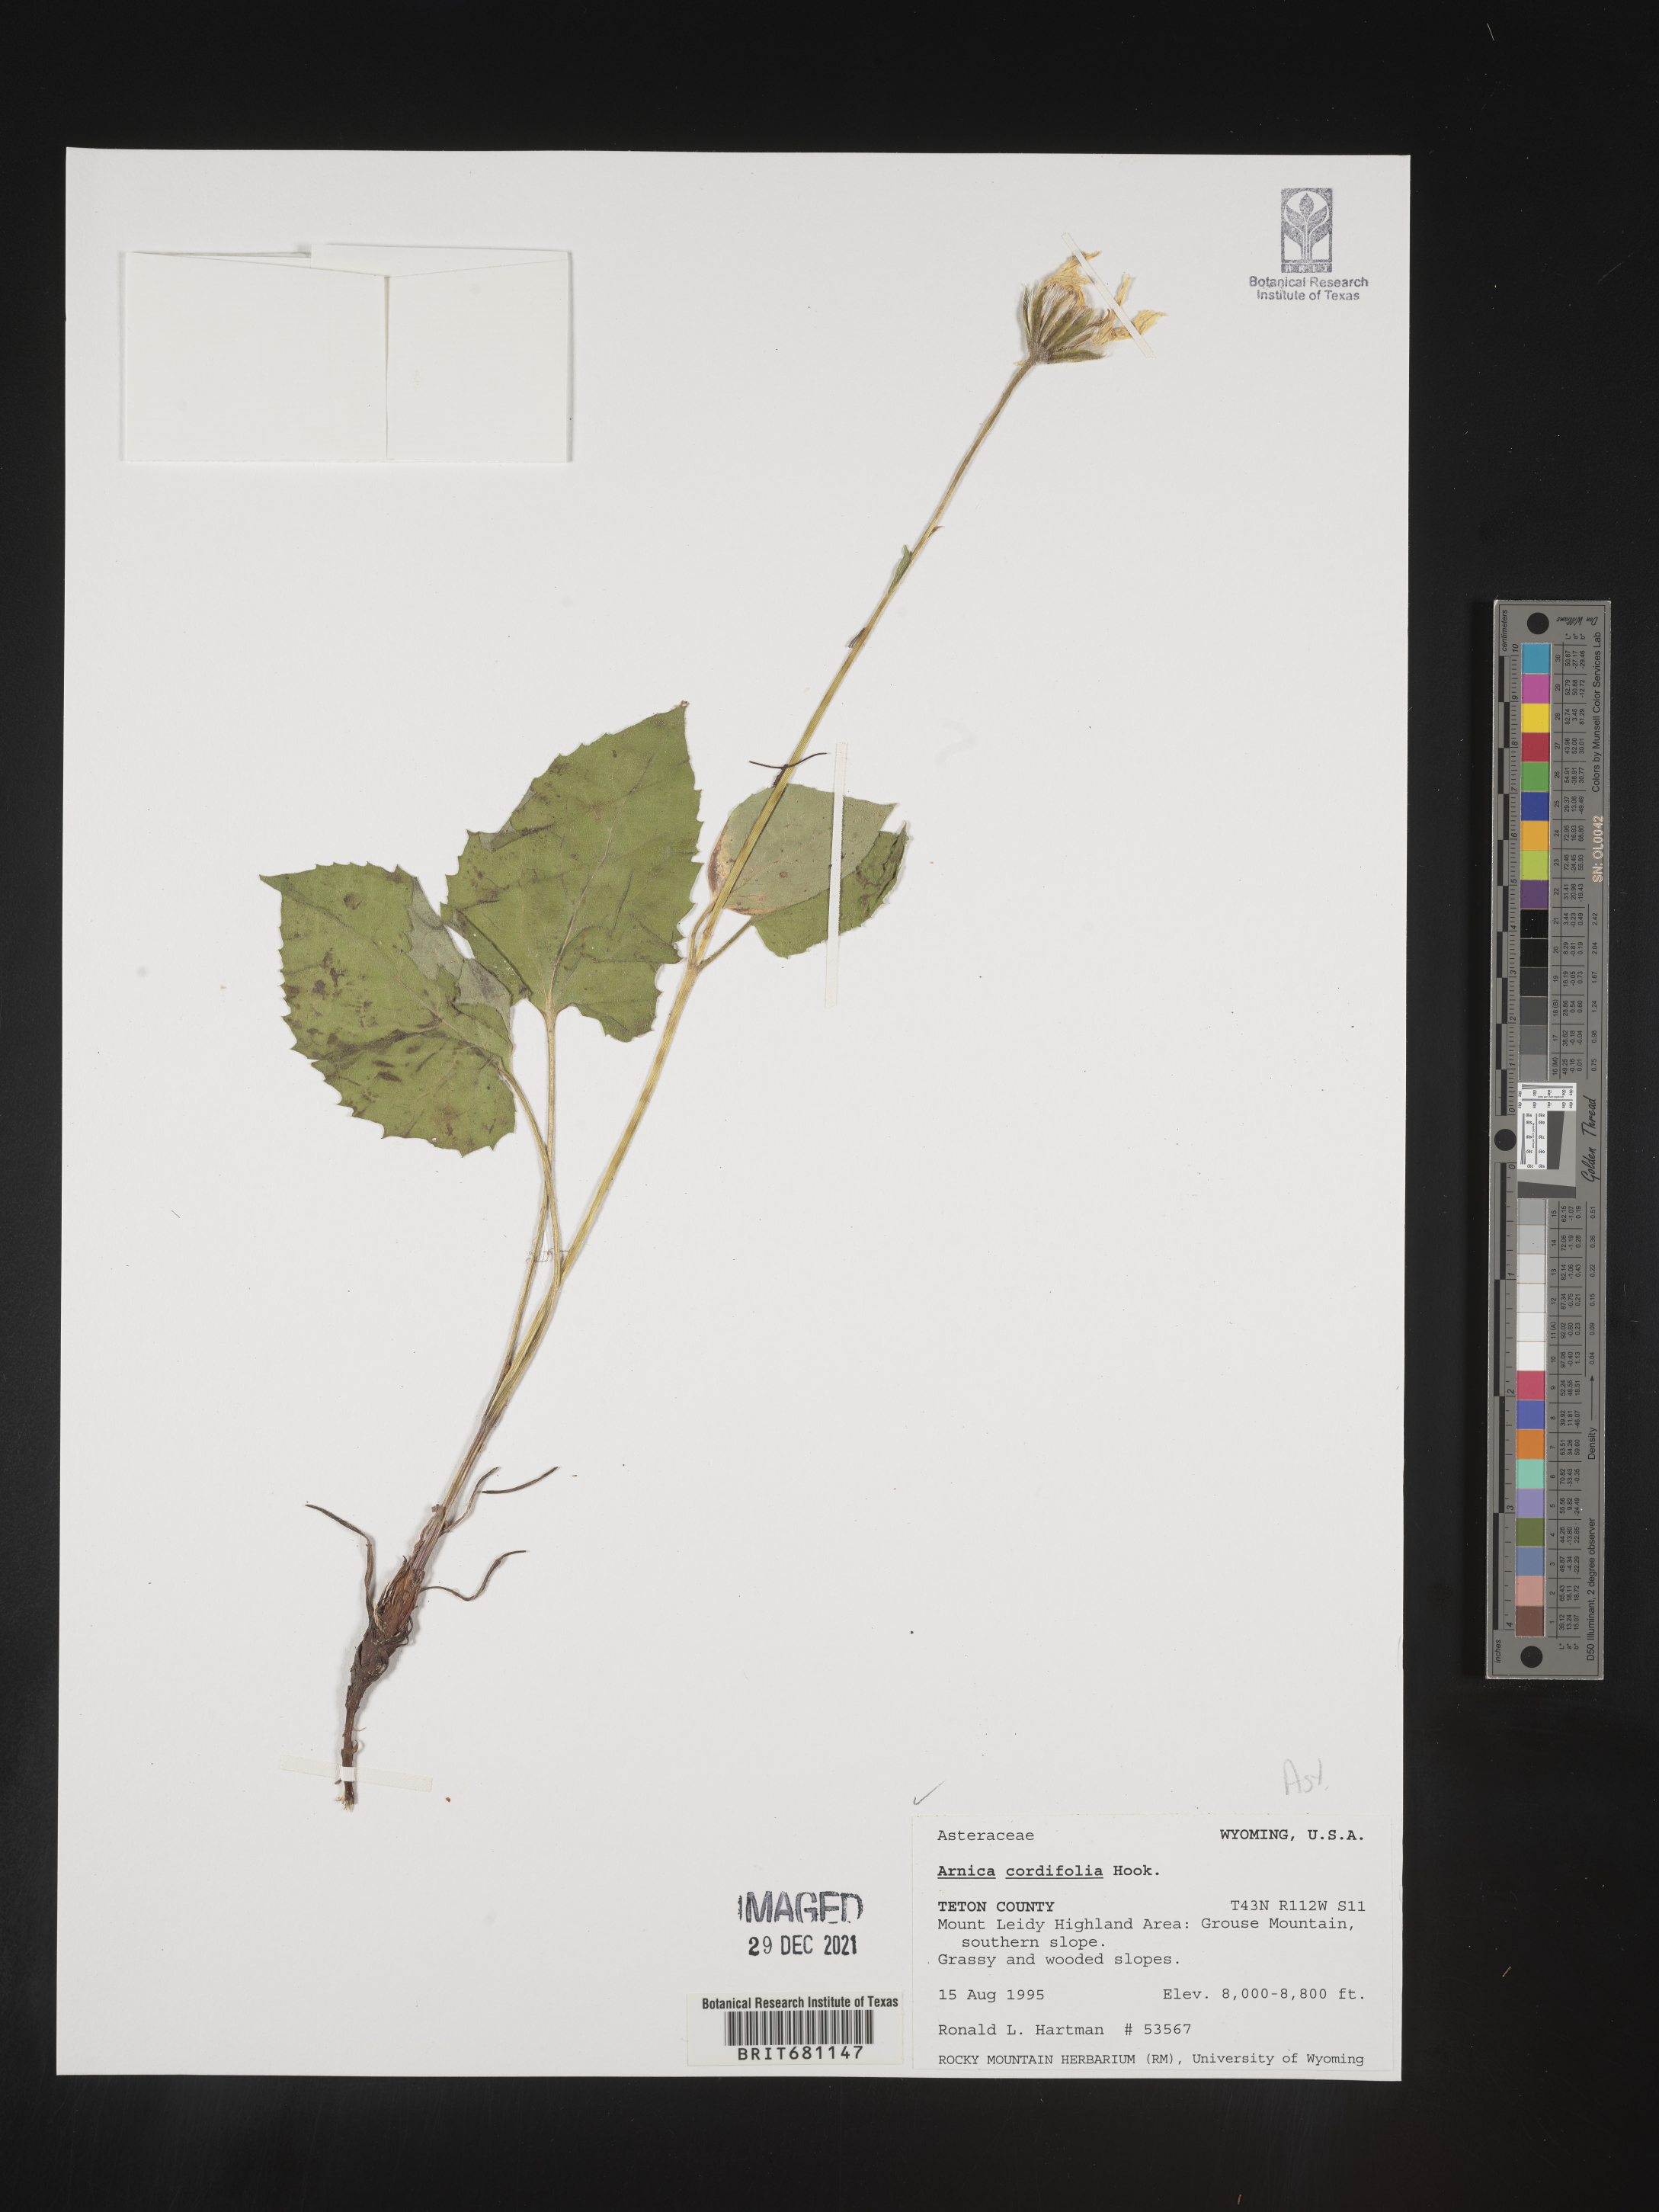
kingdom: Plantae
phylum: Tracheophyta
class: Magnoliopsida
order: Asterales
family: Asteraceae
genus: Arnica
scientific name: Arnica cordifolia
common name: Heart-leaf arnica
